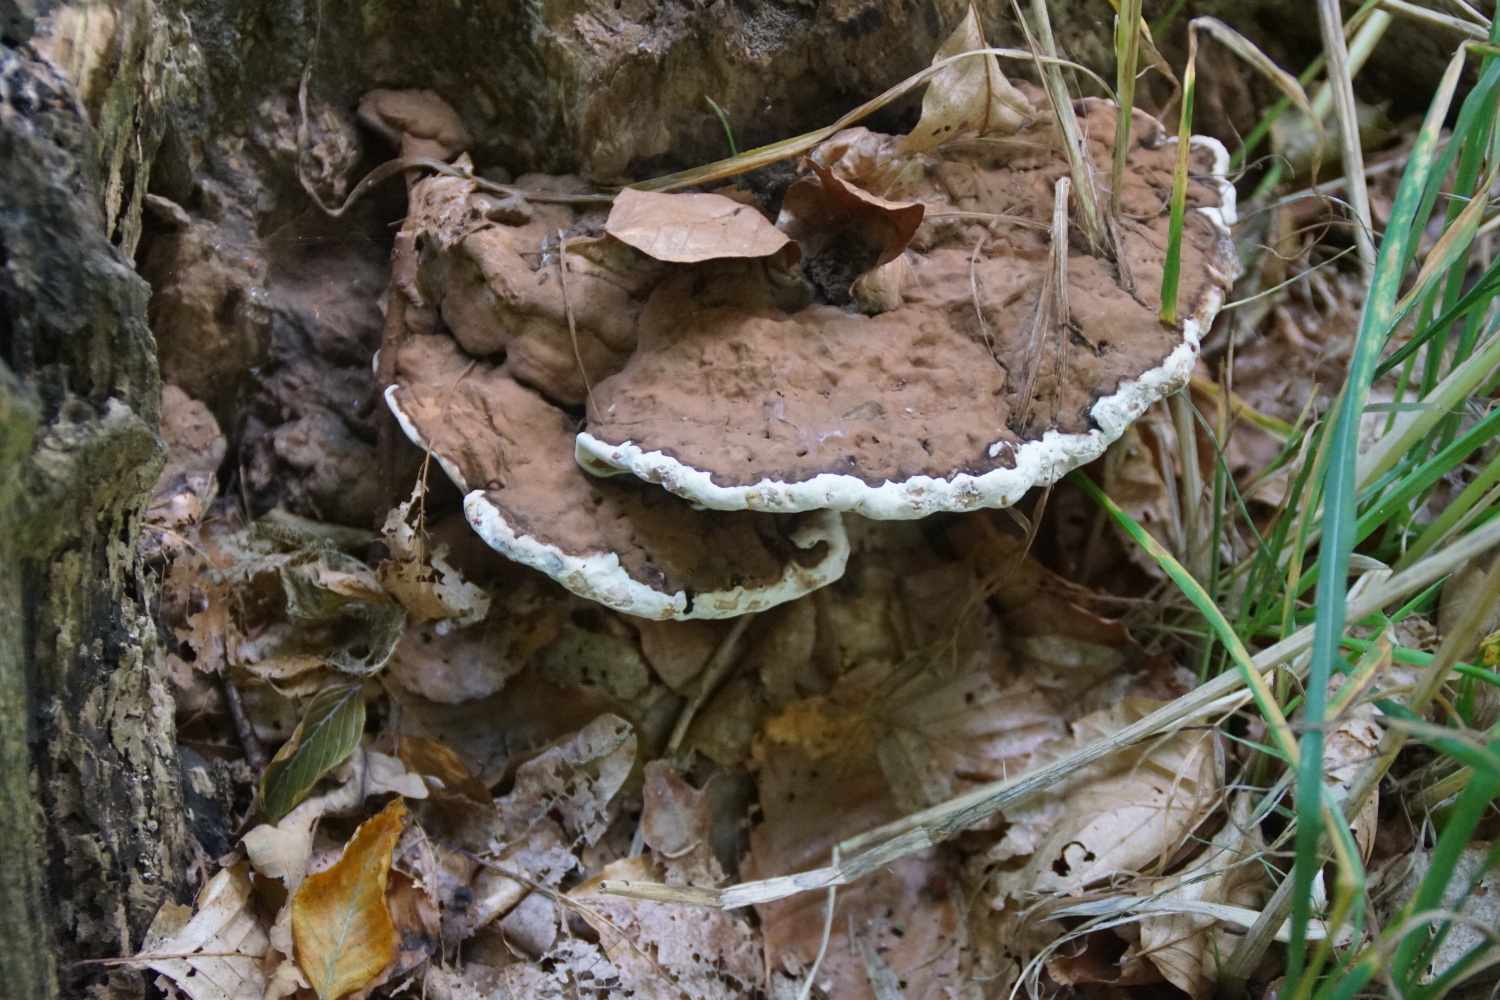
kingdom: Fungi
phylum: Basidiomycota
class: Agaricomycetes
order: Polyporales
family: Polyporaceae
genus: Ganoderma
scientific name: Ganoderma applanatum
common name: flad lakporesvamp
